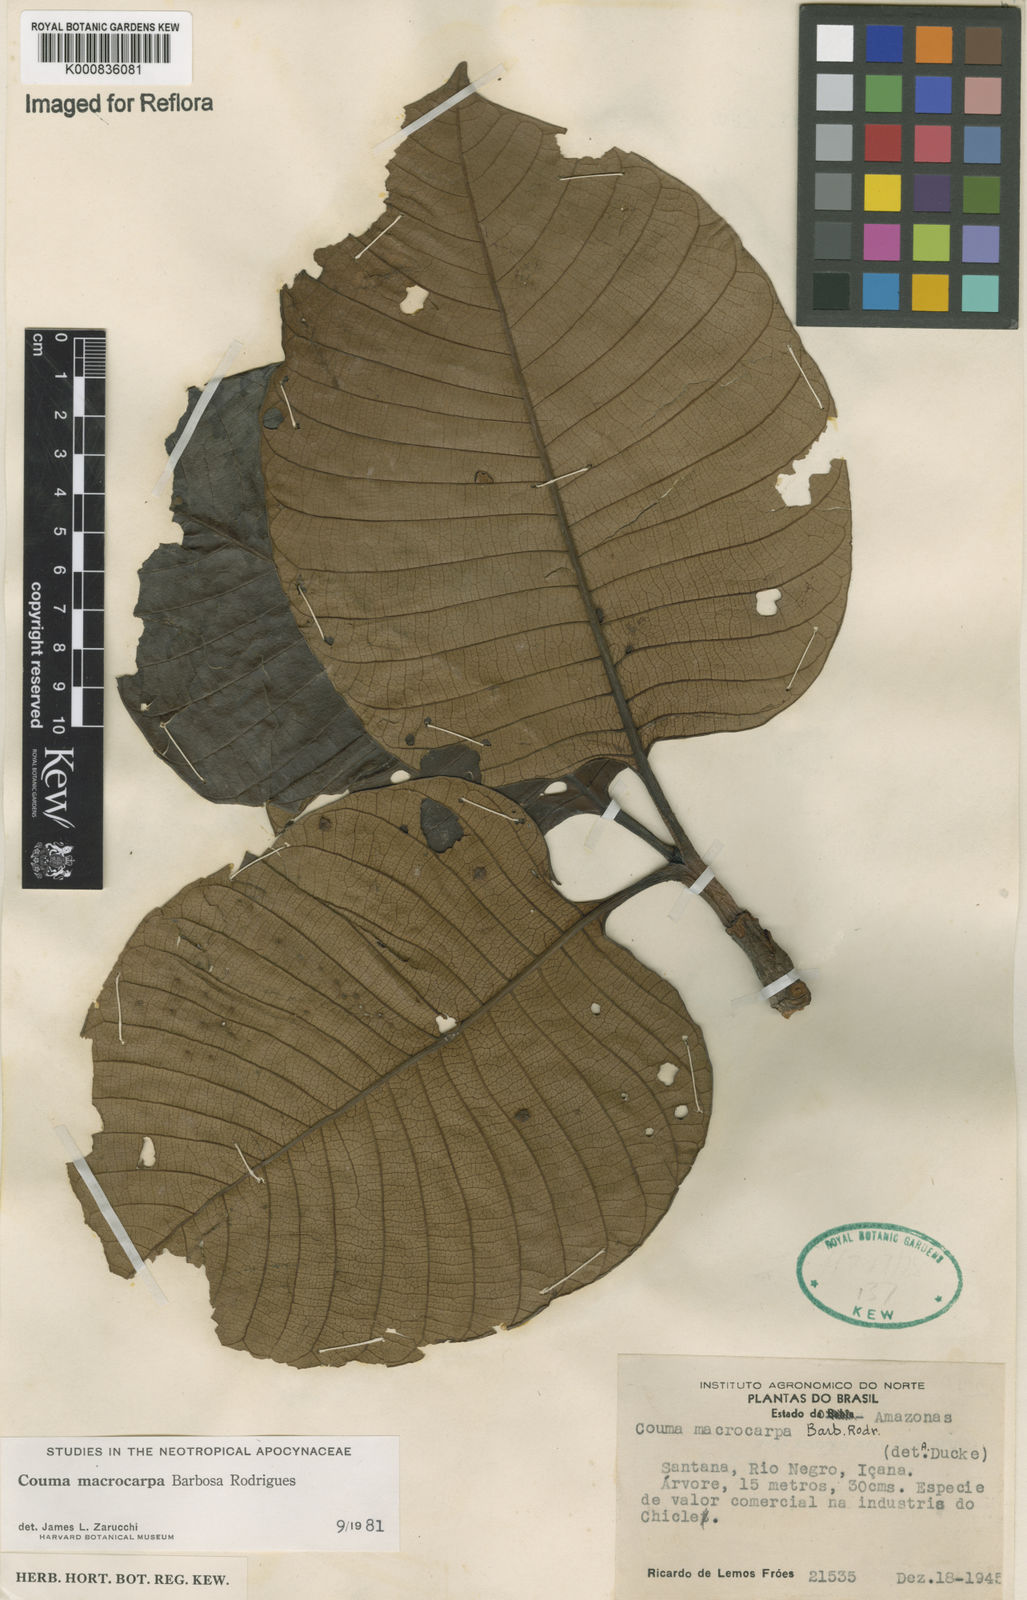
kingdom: Plantae
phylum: Tracheophyta
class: Magnoliopsida
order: Gentianales
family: Apocynaceae
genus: Couma
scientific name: Couma macrocarpa
